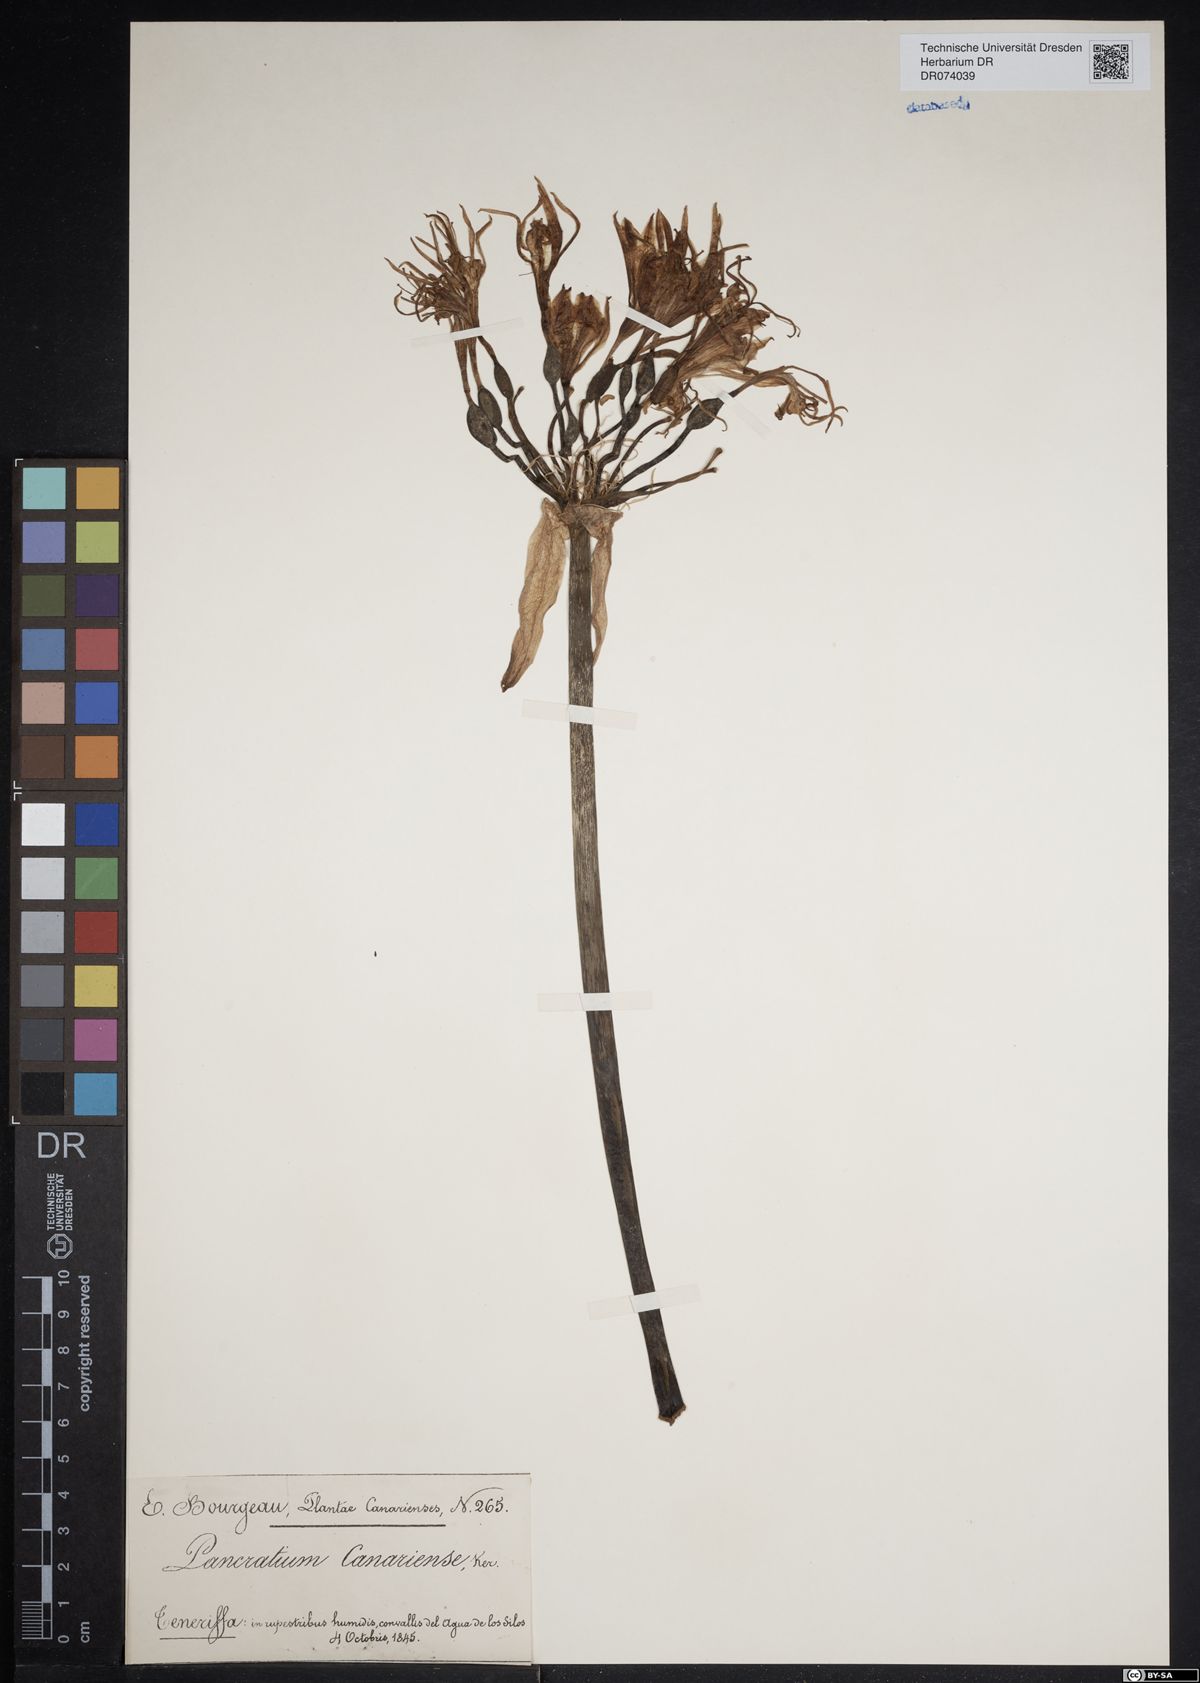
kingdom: Plantae
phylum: Tracheophyta
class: Liliopsida
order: Asparagales
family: Amaryllidaceae
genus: Pancratium
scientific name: Pancratium canariense
